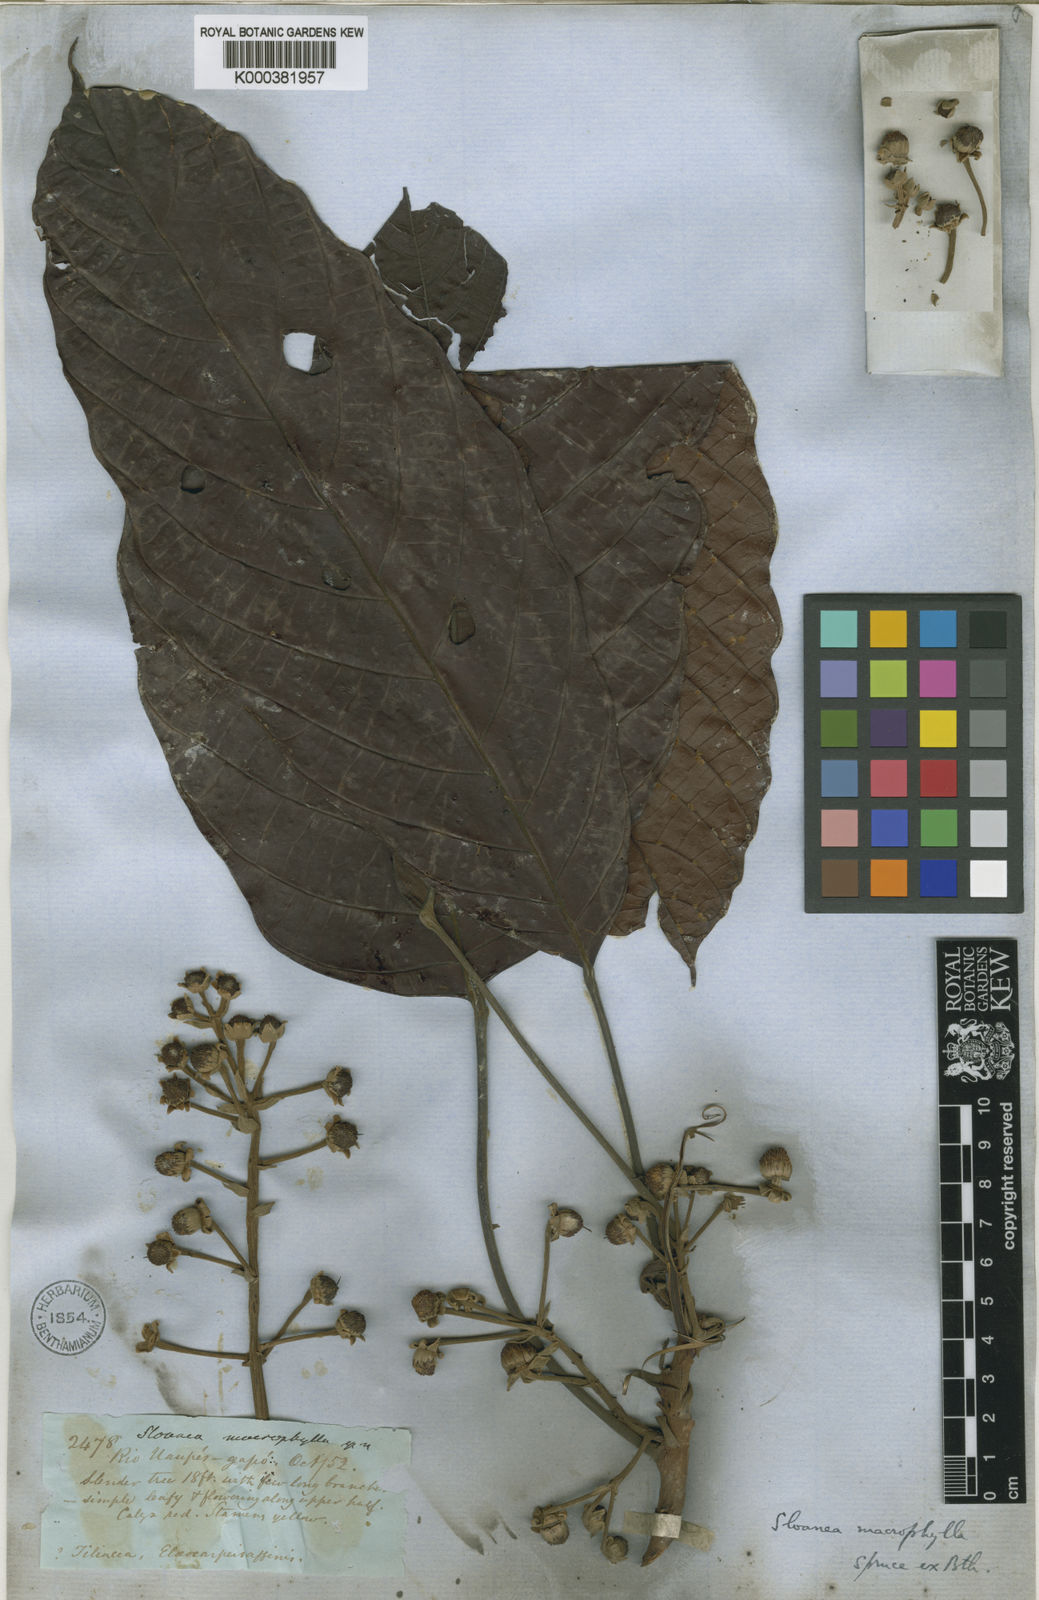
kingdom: Plantae
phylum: Tracheophyta
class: Magnoliopsida
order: Oxalidales
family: Elaeocarpaceae
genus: Sloanea
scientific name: Sloanea macrophylla
